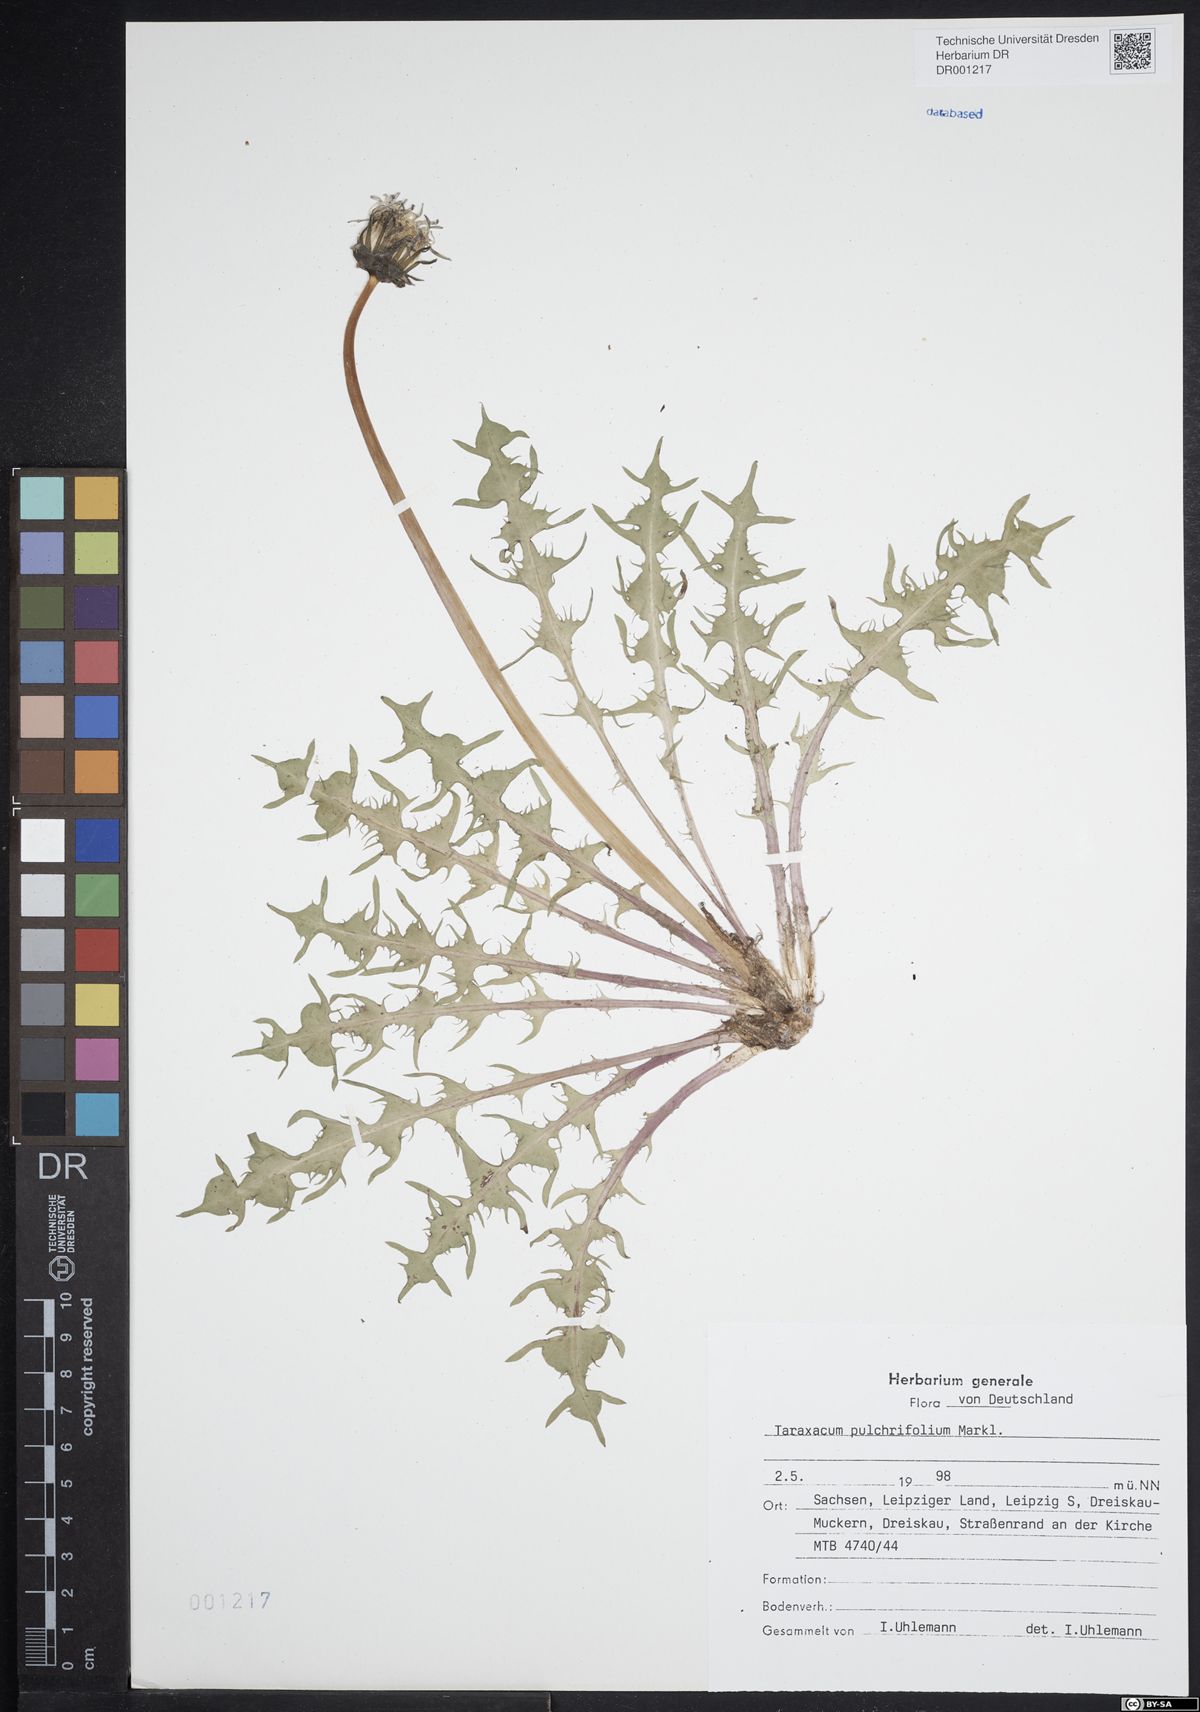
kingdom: Plantae
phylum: Tracheophyta
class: Magnoliopsida
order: Asterales
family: Asteraceae
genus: Taraxacum
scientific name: Taraxacum pulchrifolium
